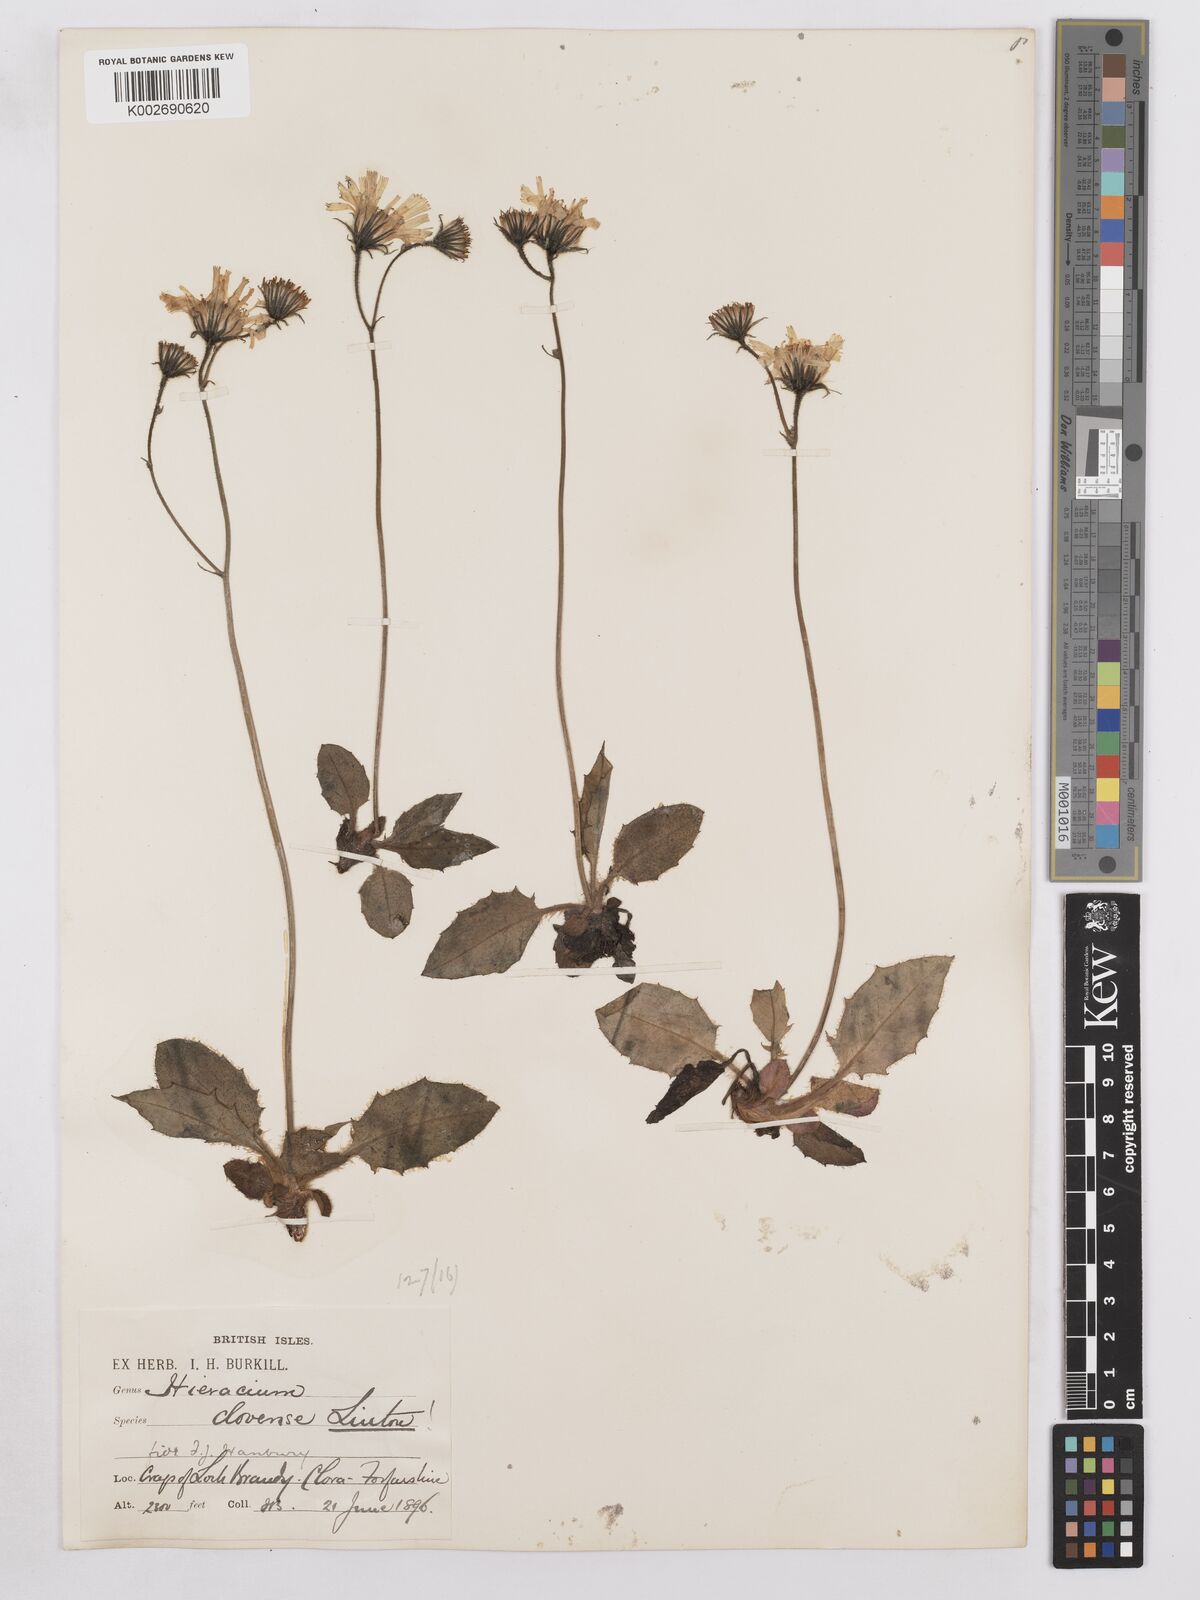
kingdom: Plantae
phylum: Tracheophyta
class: Magnoliopsida
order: Asterales
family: Asteraceae
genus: Hieracium
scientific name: Hieracium clovense
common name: Clova hawkweed
